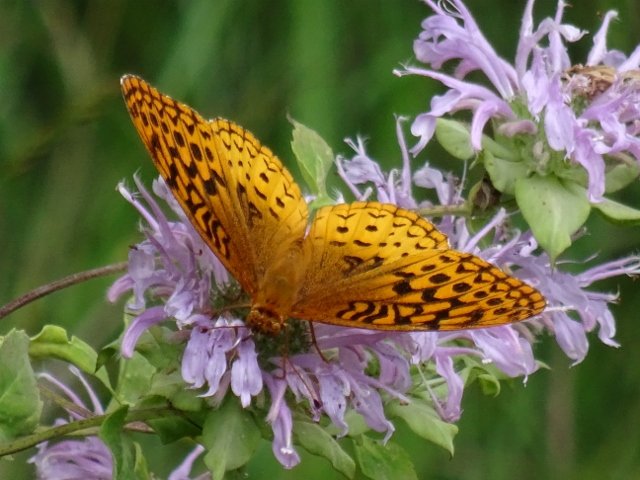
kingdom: Animalia
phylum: Arthropoda
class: Insecta
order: Lepidoptera
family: Nymphalidae
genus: Speyeria
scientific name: Speyeria cybele
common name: Great Spangled Fritillary
